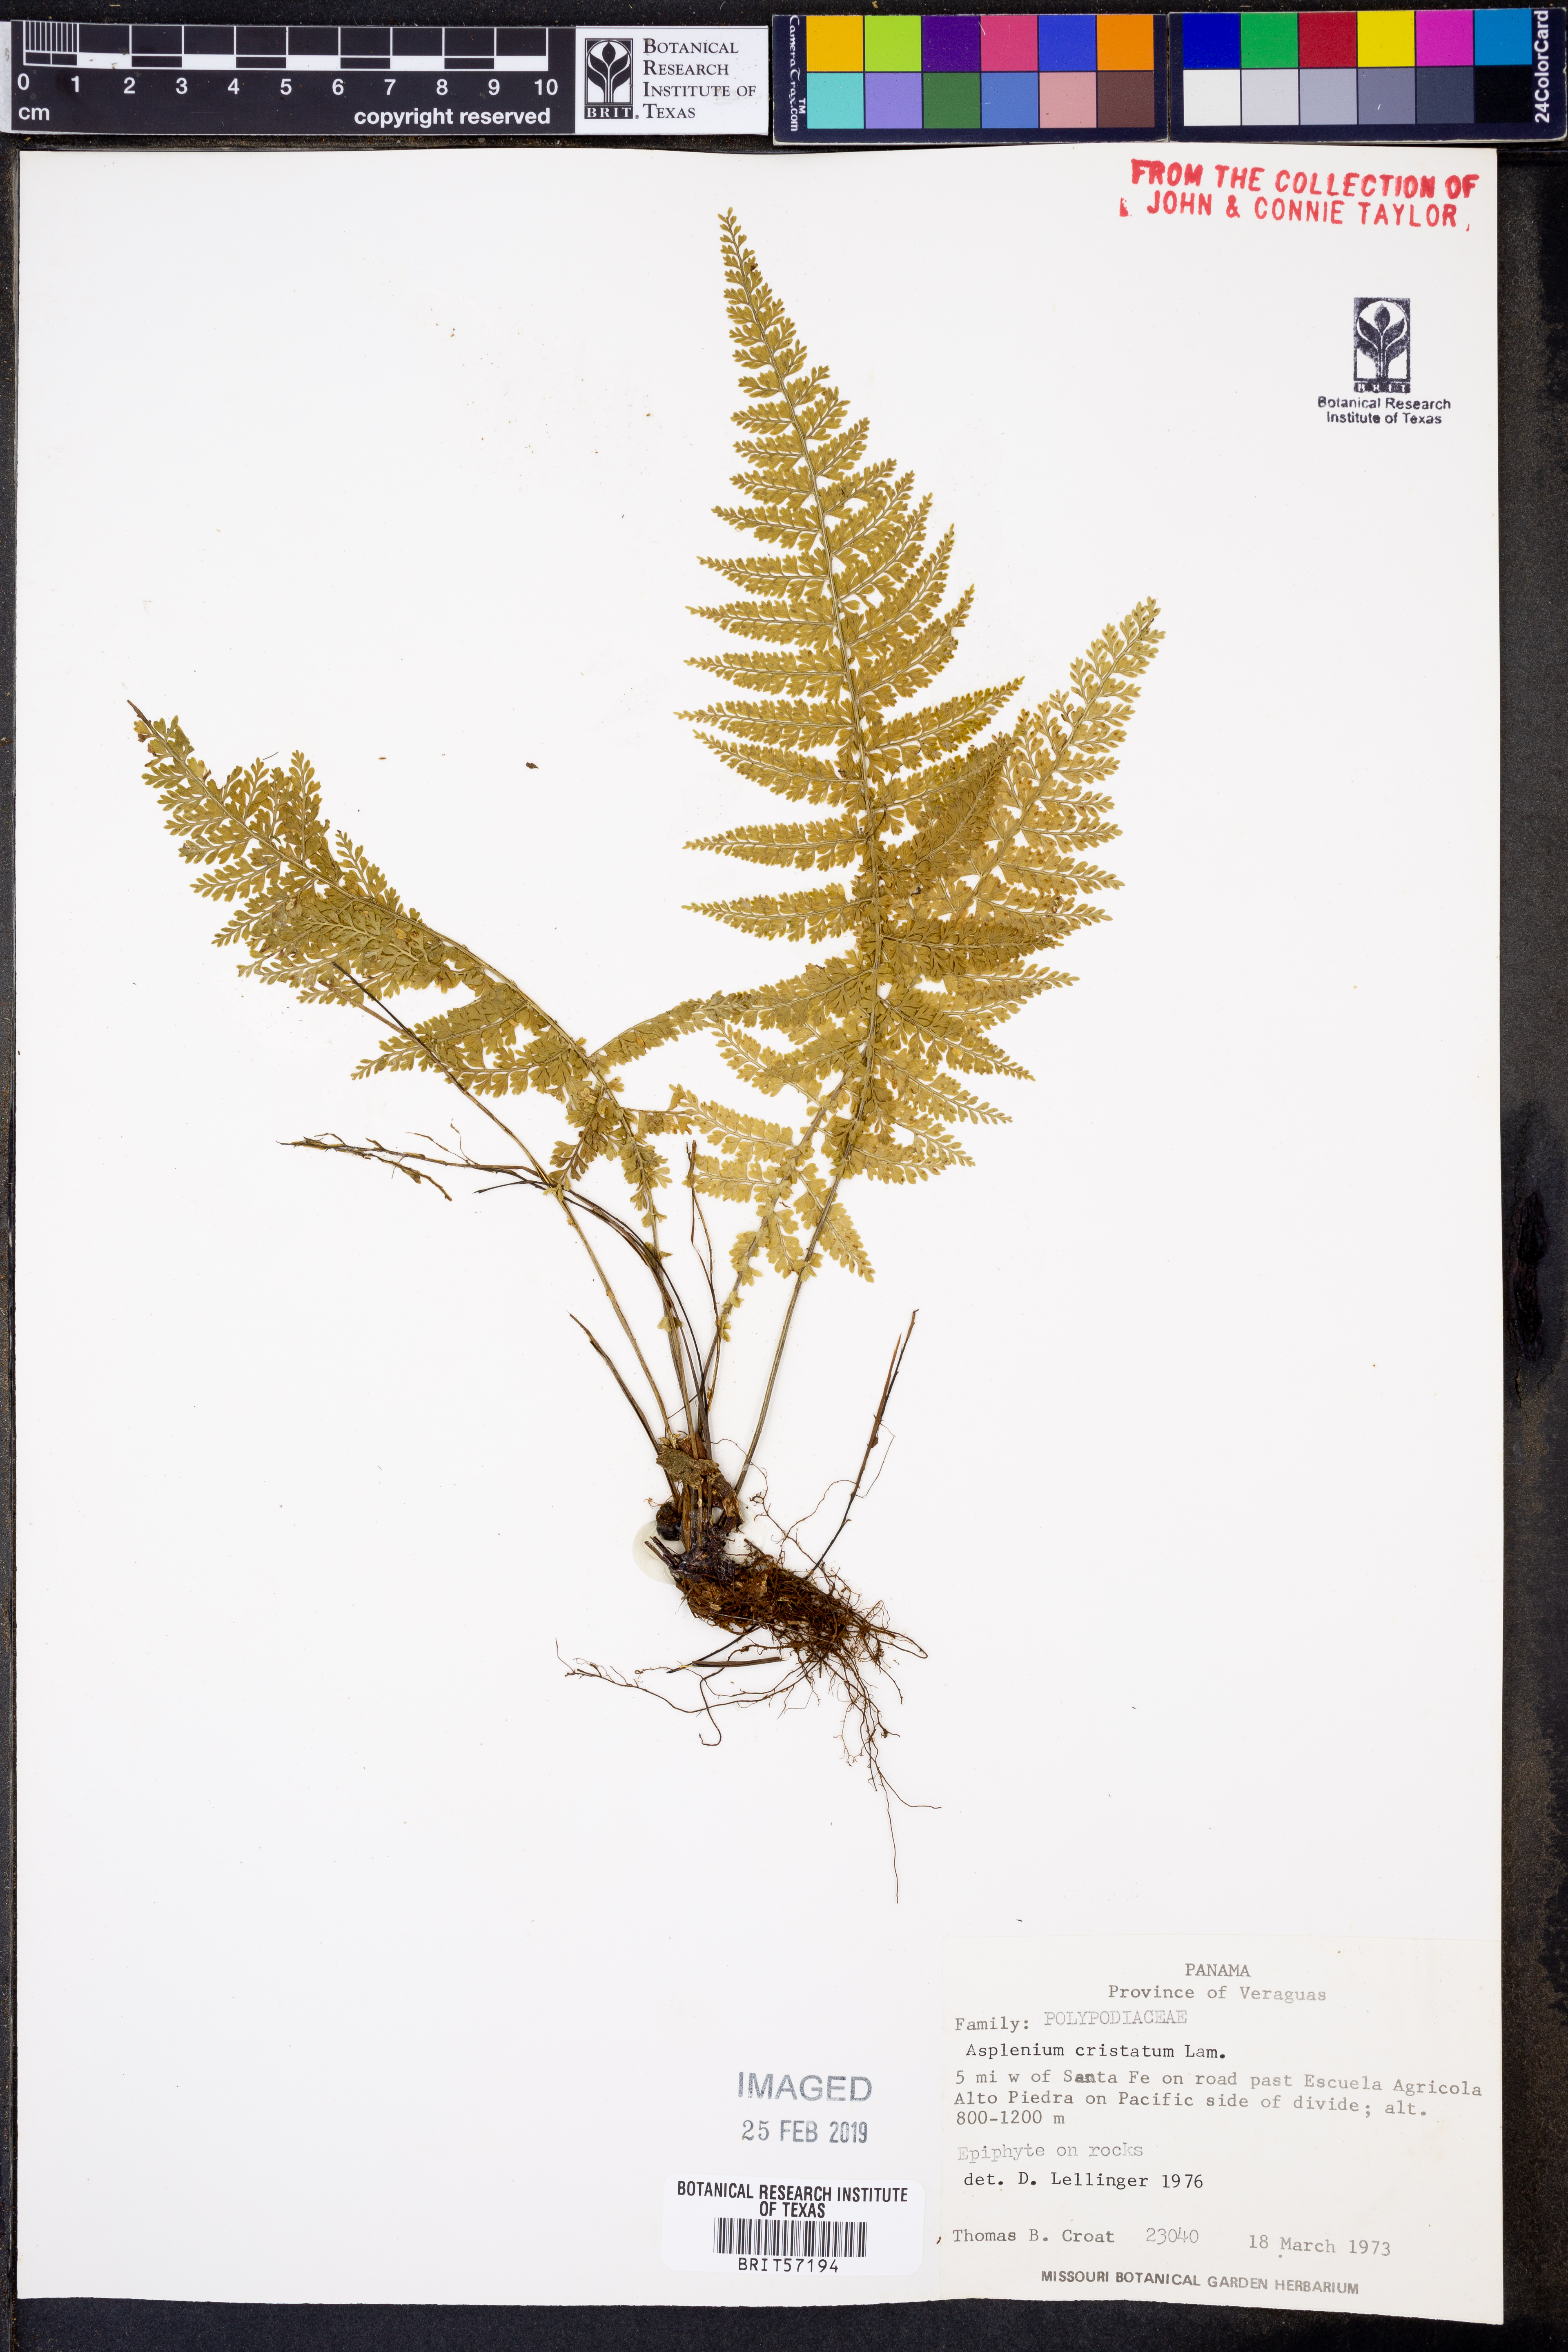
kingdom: Plantae
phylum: Tracheophyta
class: Polypodiopsida
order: Polypodiales
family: Aspleniaceae
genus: Asplenium
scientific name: Asplenium cristatum
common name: Parsley spleenwort
